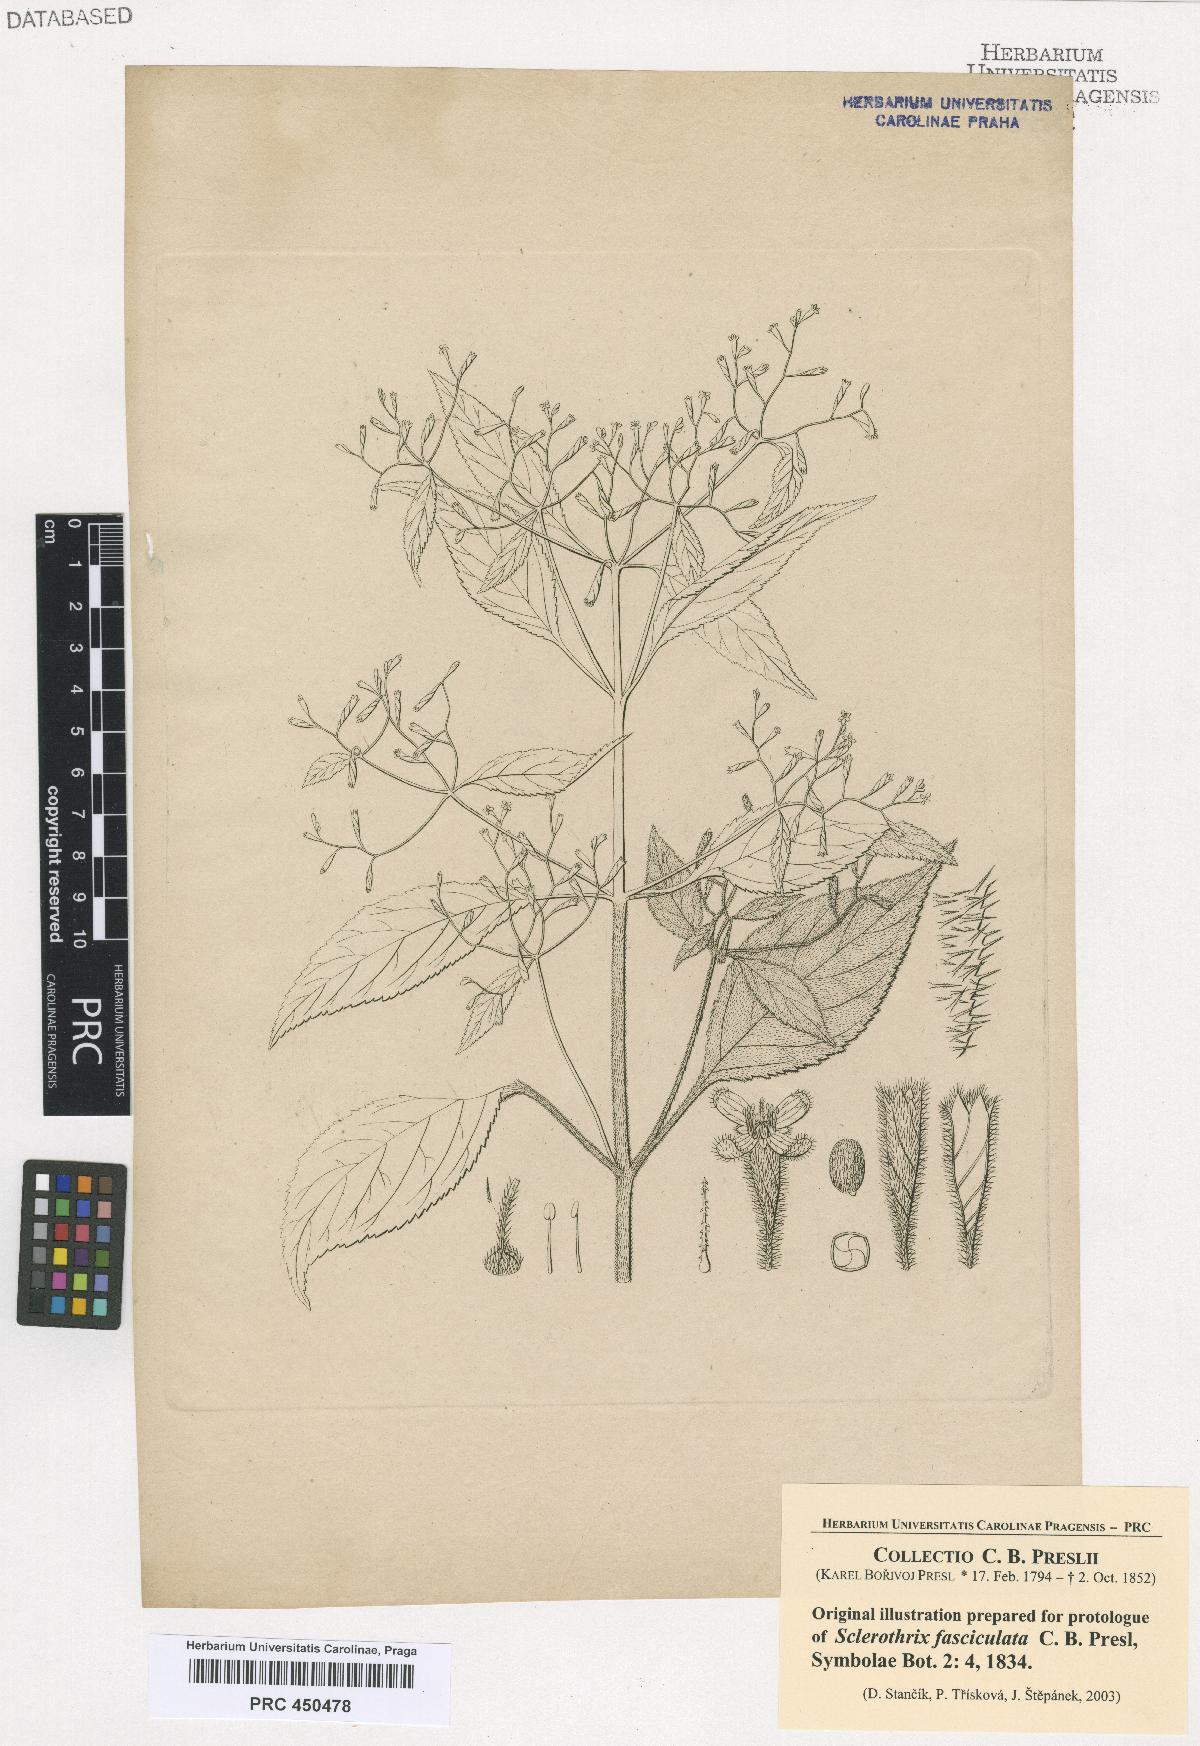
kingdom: Plantae
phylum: Tracheophyta
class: Magnoliopsida
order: Cornales
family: Loasaceae
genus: Klaprothia
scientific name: Klaprothia fasciculata
